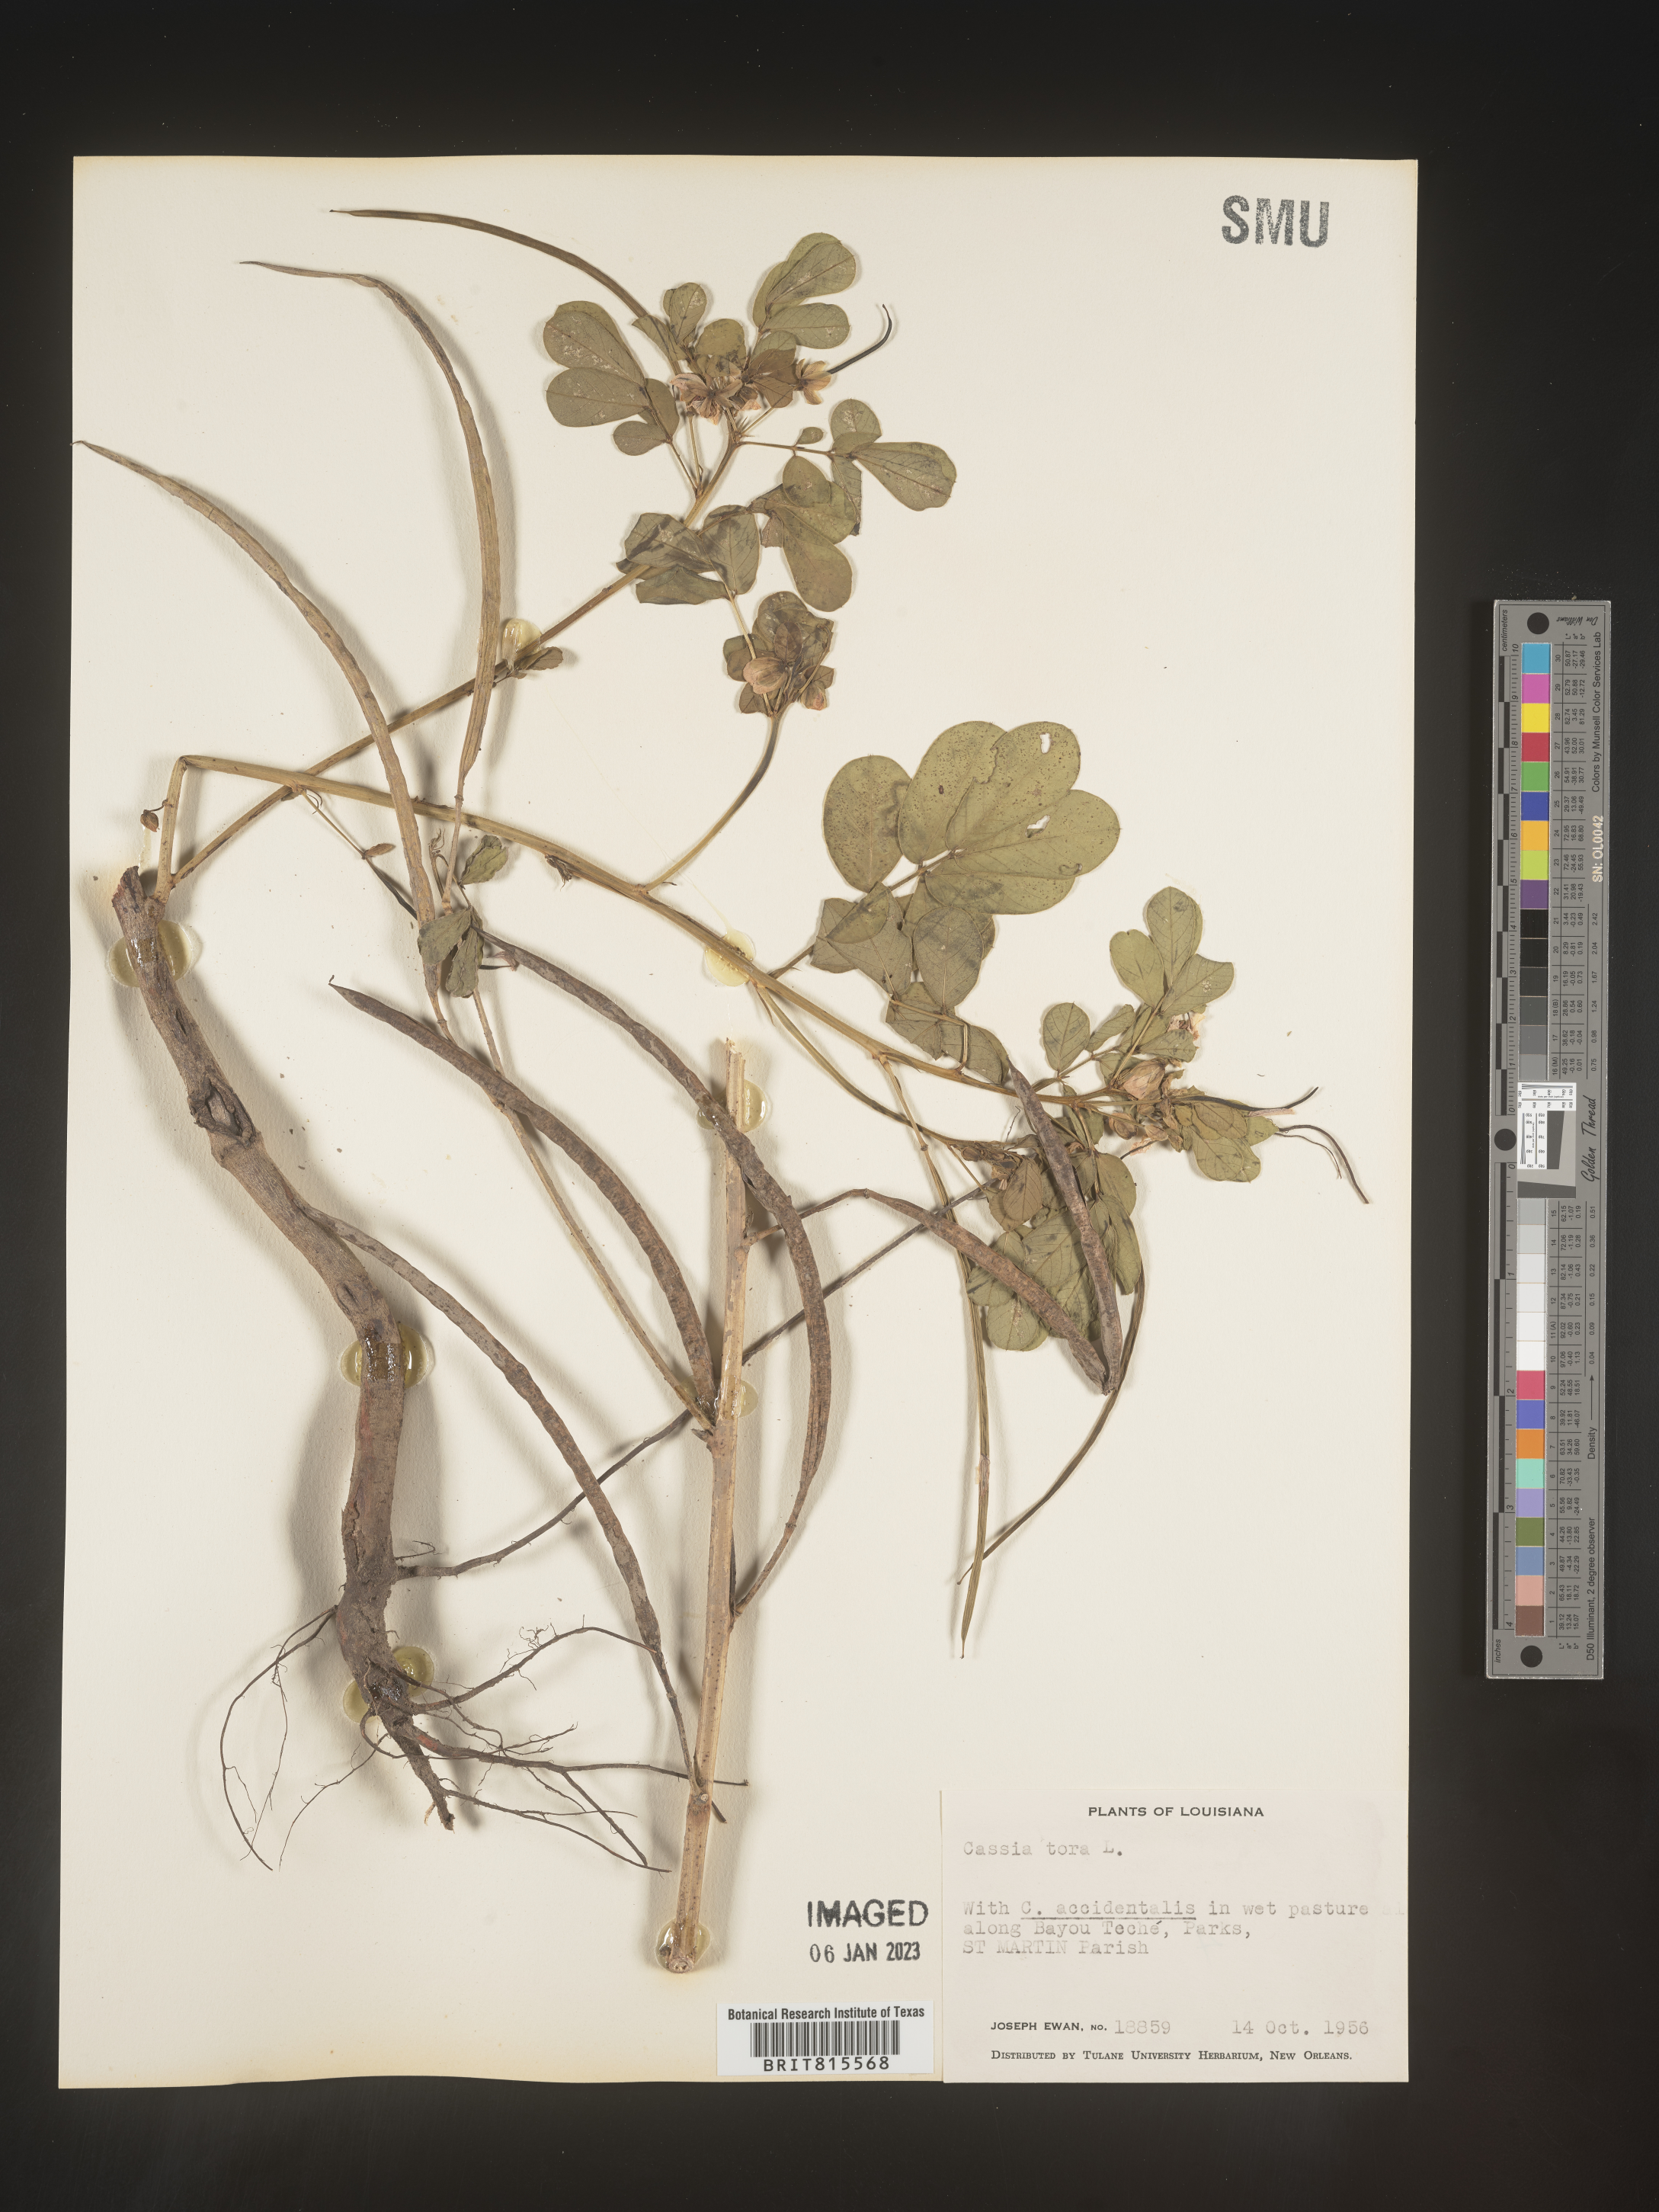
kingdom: Plantae
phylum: Tracheophyta
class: Magnoliopsida
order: Fabales
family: Fabaceae
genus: Senna
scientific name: Senna tora
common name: Sickle senna
